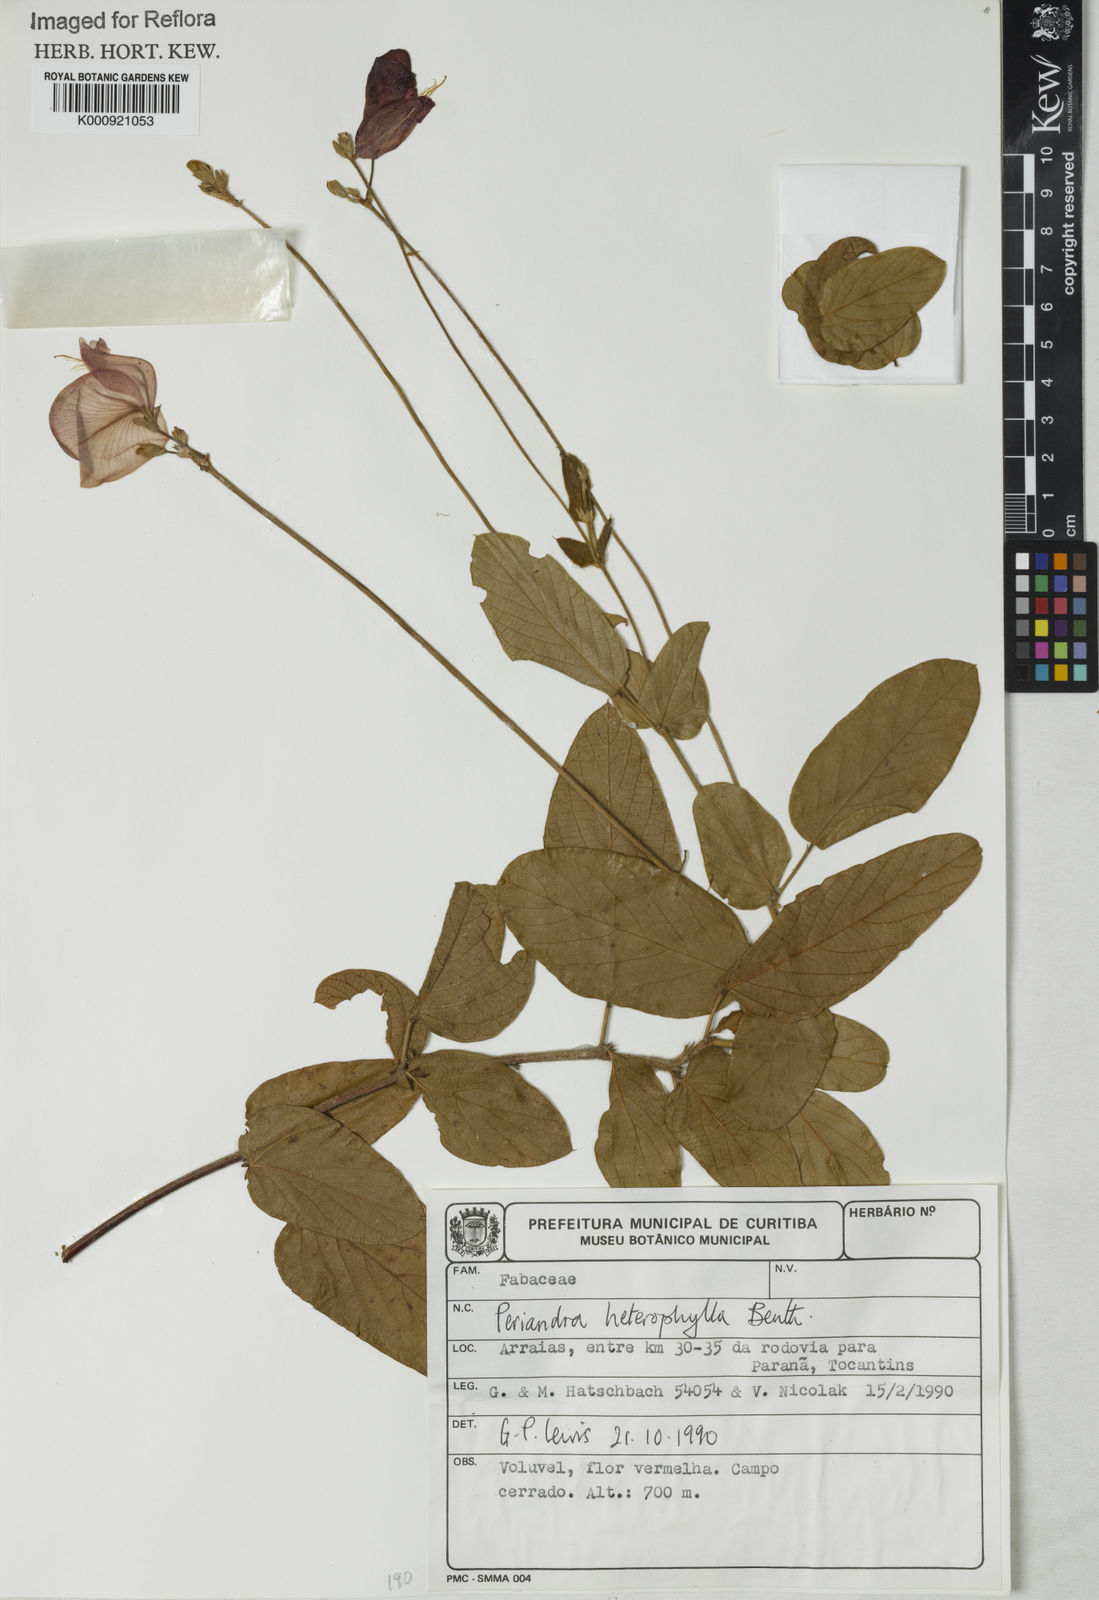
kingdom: Plantae
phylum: Tracheophyta
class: Magnoliopsida
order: Fabales
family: Fabaceae
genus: Periandra
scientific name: Periandra heterophylla
